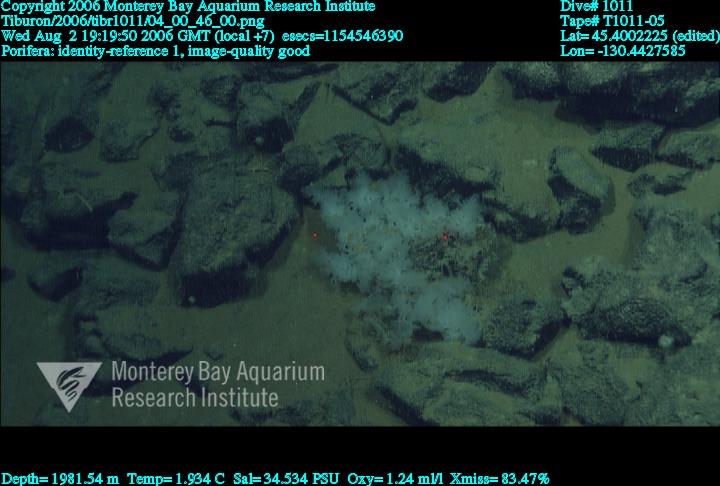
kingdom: Animalia
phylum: Porifera
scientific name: Porifera
